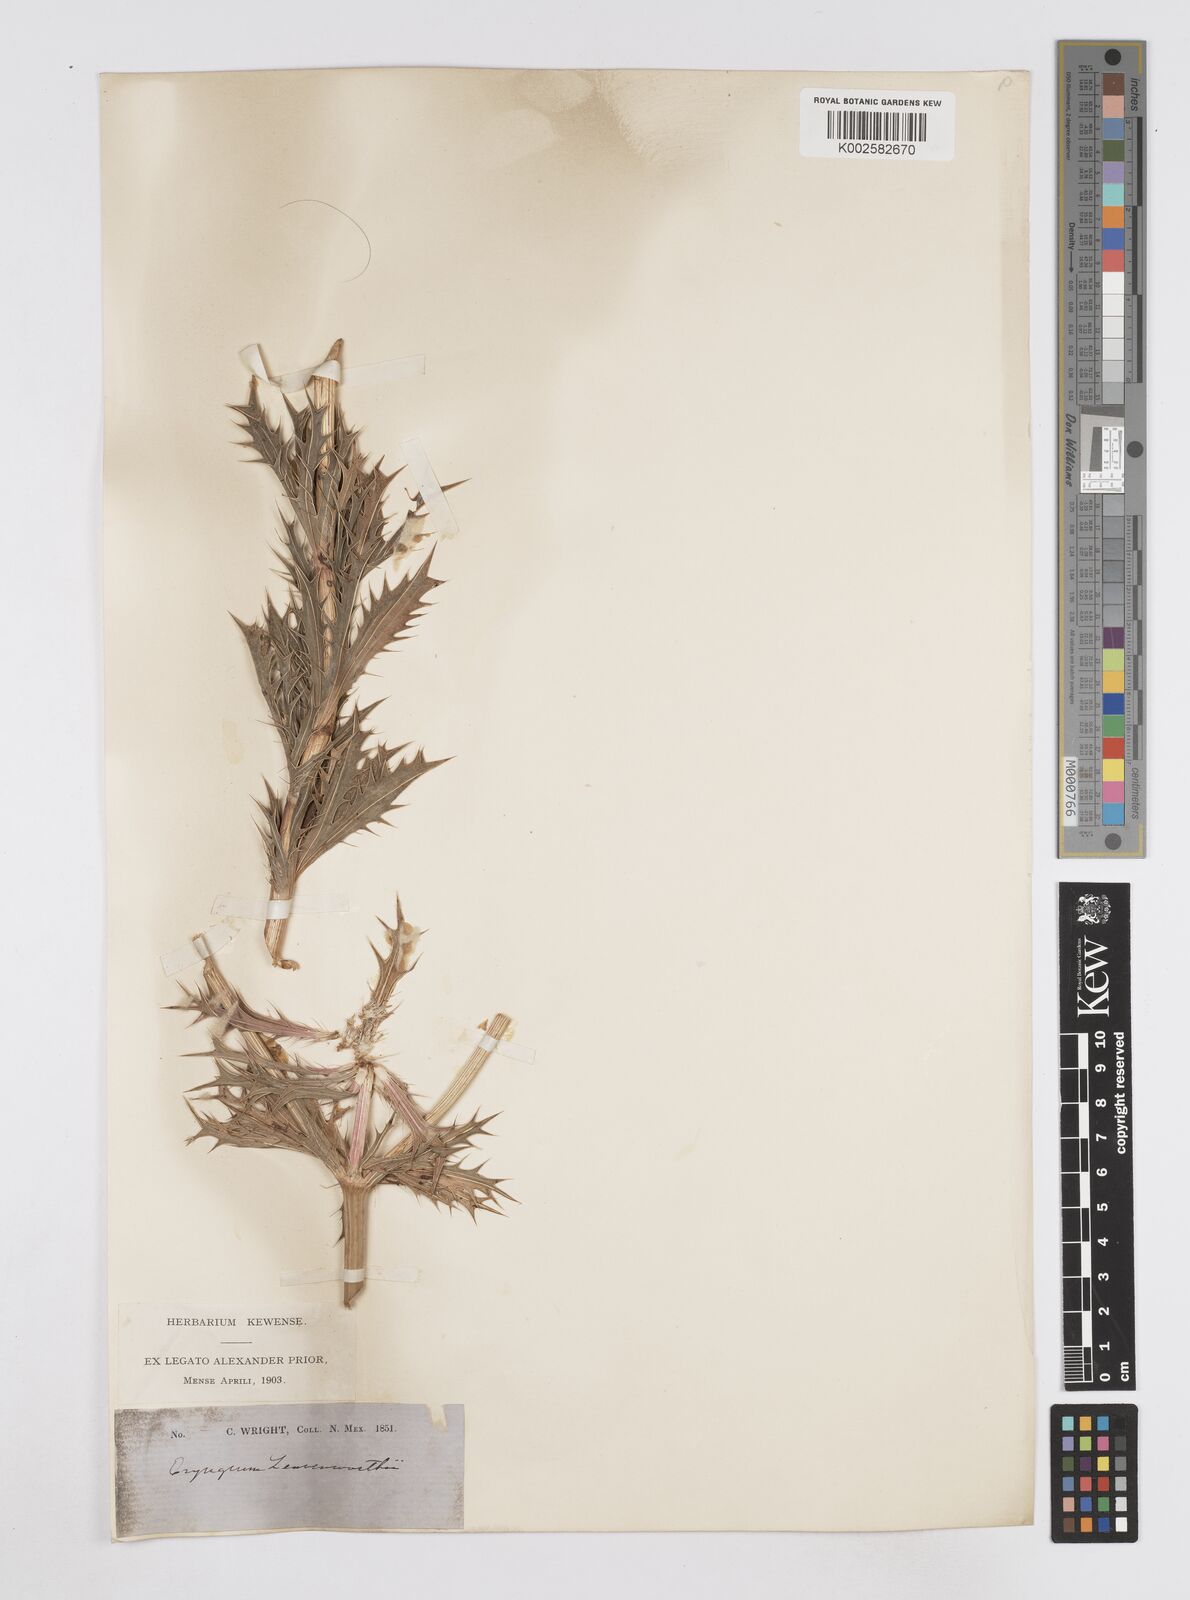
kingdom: Plantae
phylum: Tracheophyta
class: Magnoliopsida
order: Apiales
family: Apiaceae
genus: Eryngium
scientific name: Eryngium leavenworthii
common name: Leavenworth's eryngo
